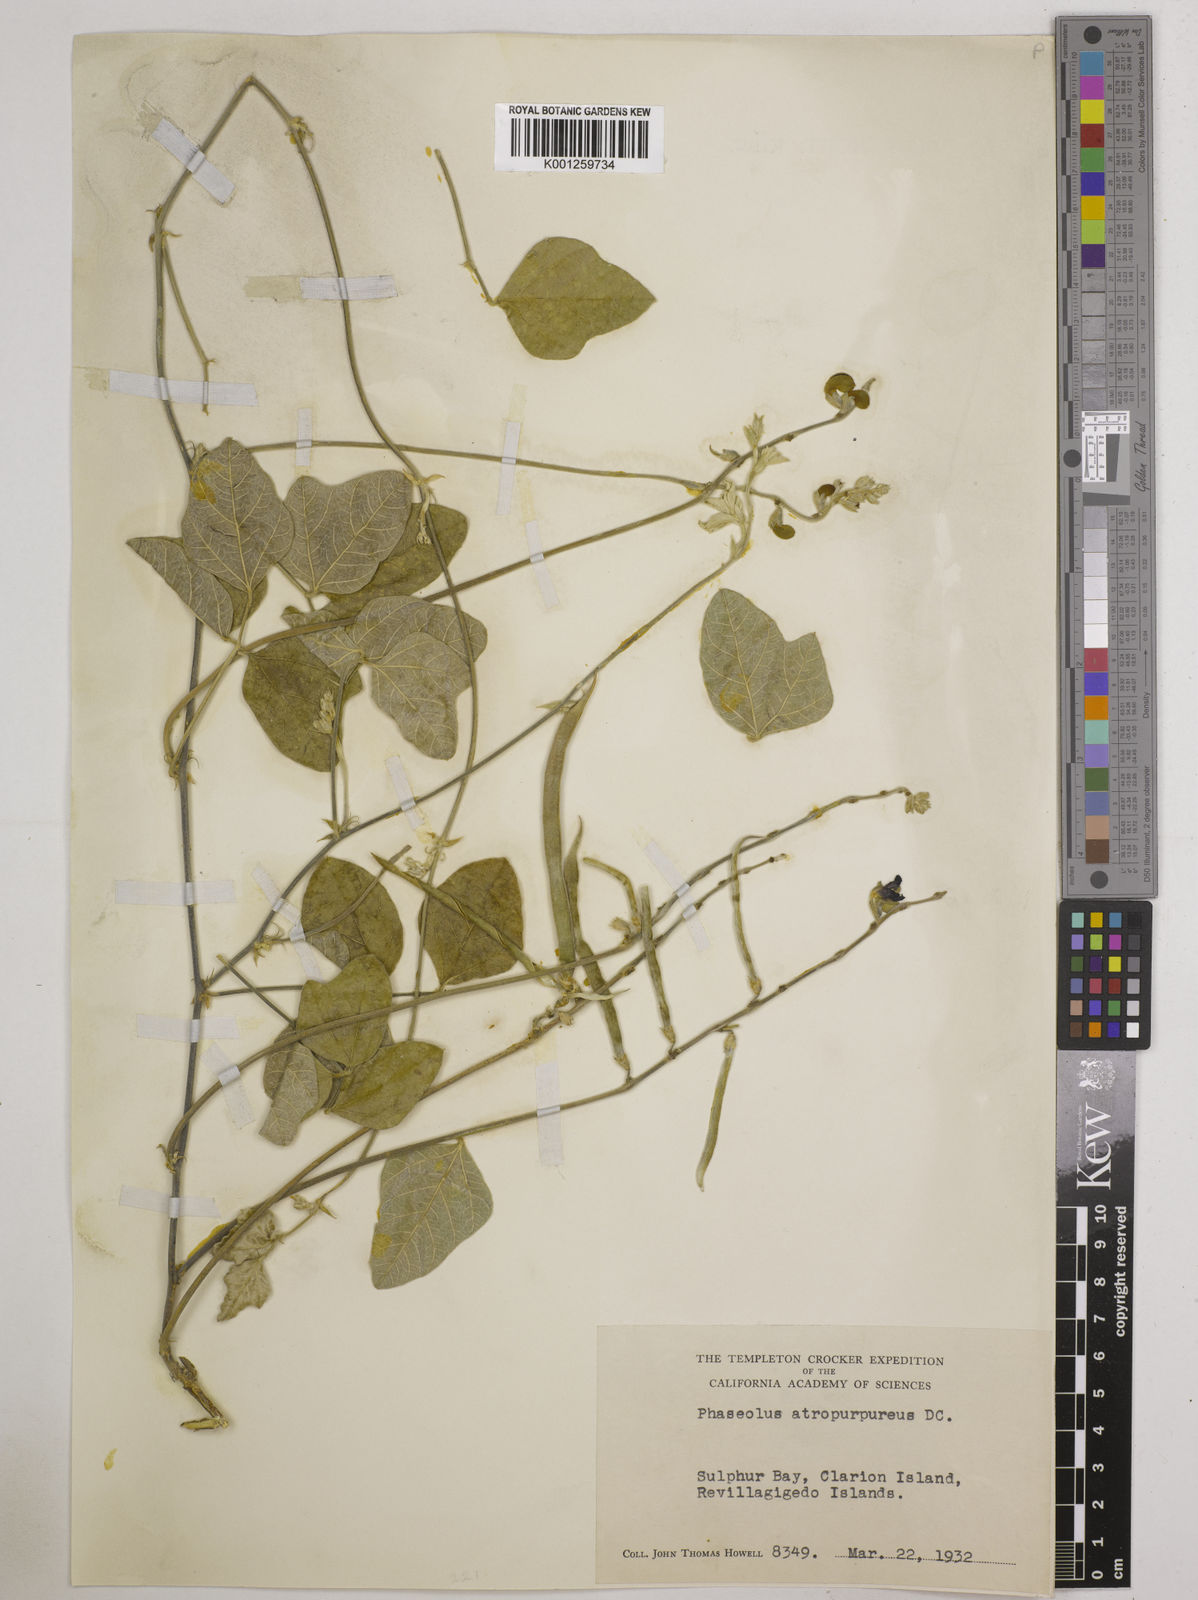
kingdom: Plantae
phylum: Tracheophyta
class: Magnoliopsida
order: Fabales
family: Fabaceae
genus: Macroptilium
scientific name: Macroptilium atropurpureum
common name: Purple bushbean
